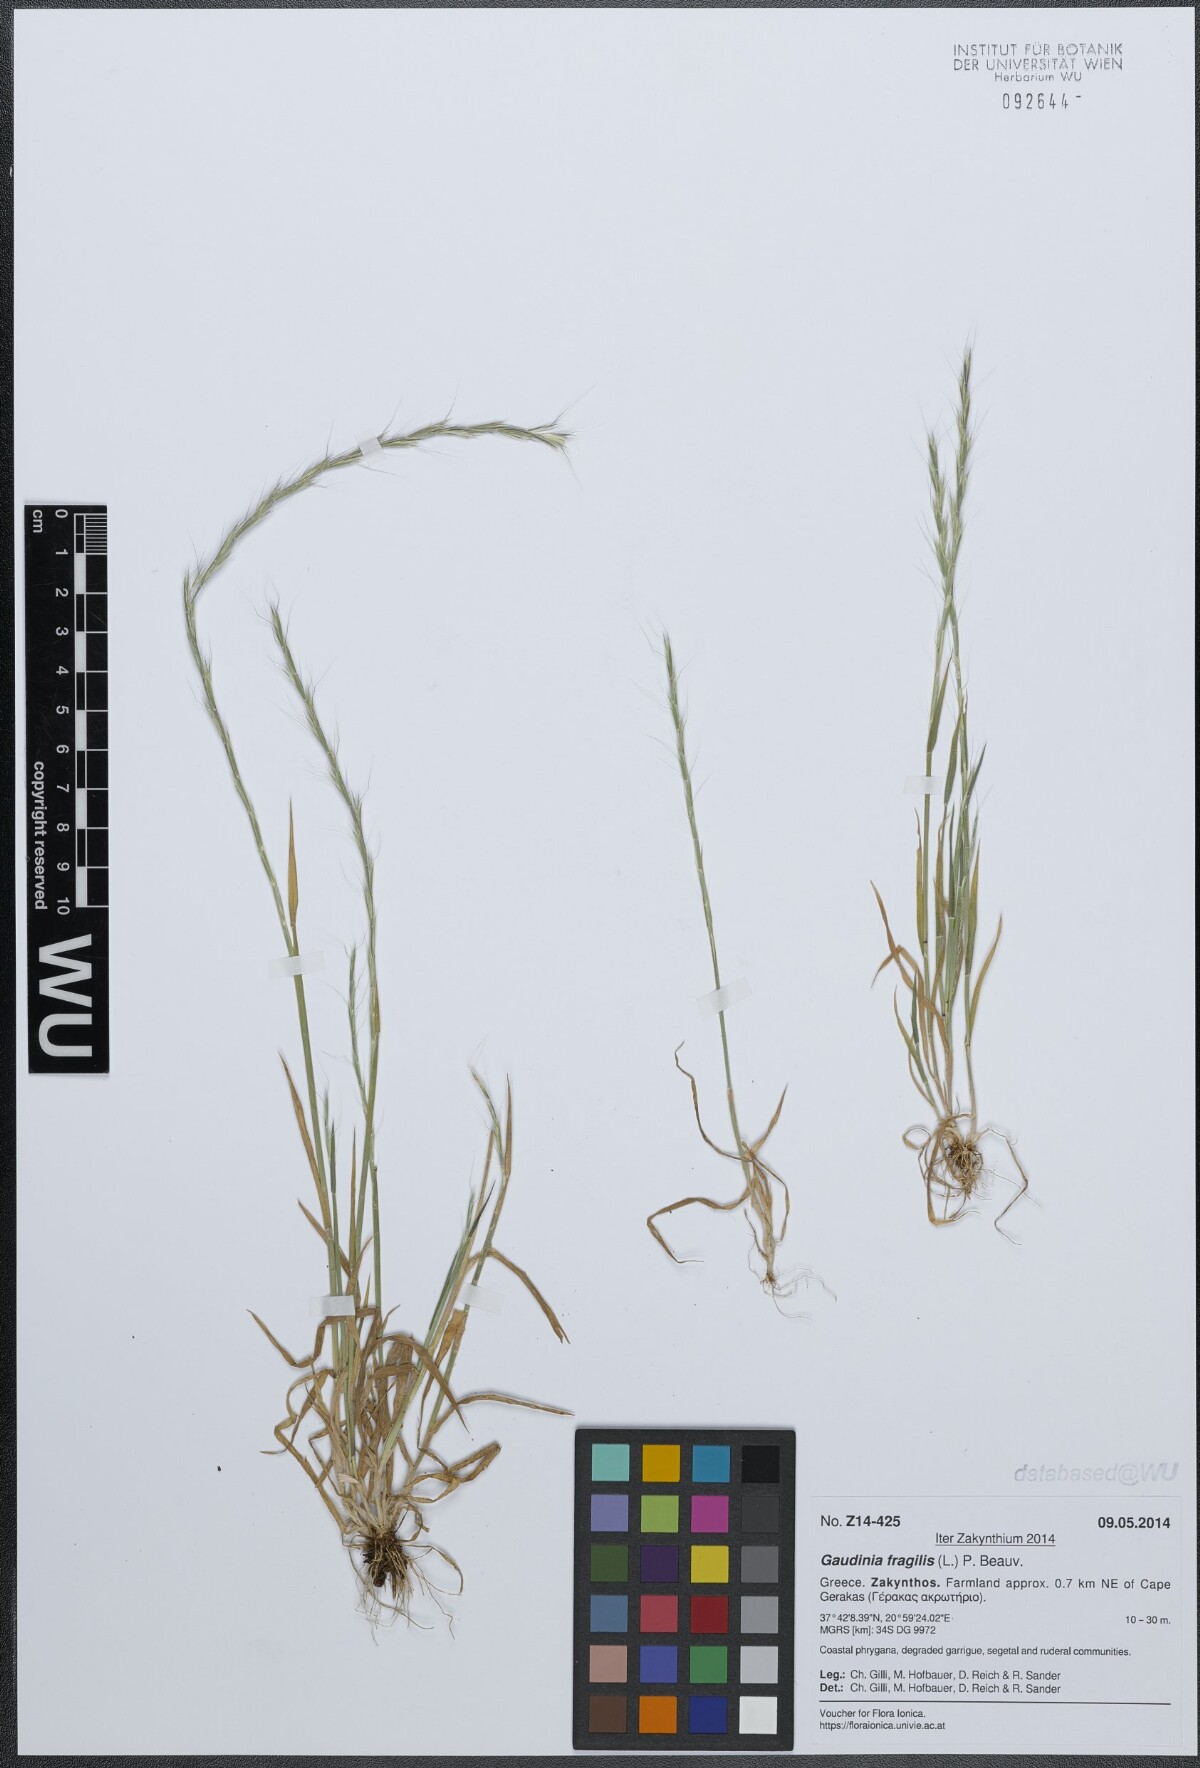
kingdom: Plantae
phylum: Tracheophyta
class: Liliopsida
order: Poales
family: Poaceae
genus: Gaudinia
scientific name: Gaudinia fragilis
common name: French oat-grass
